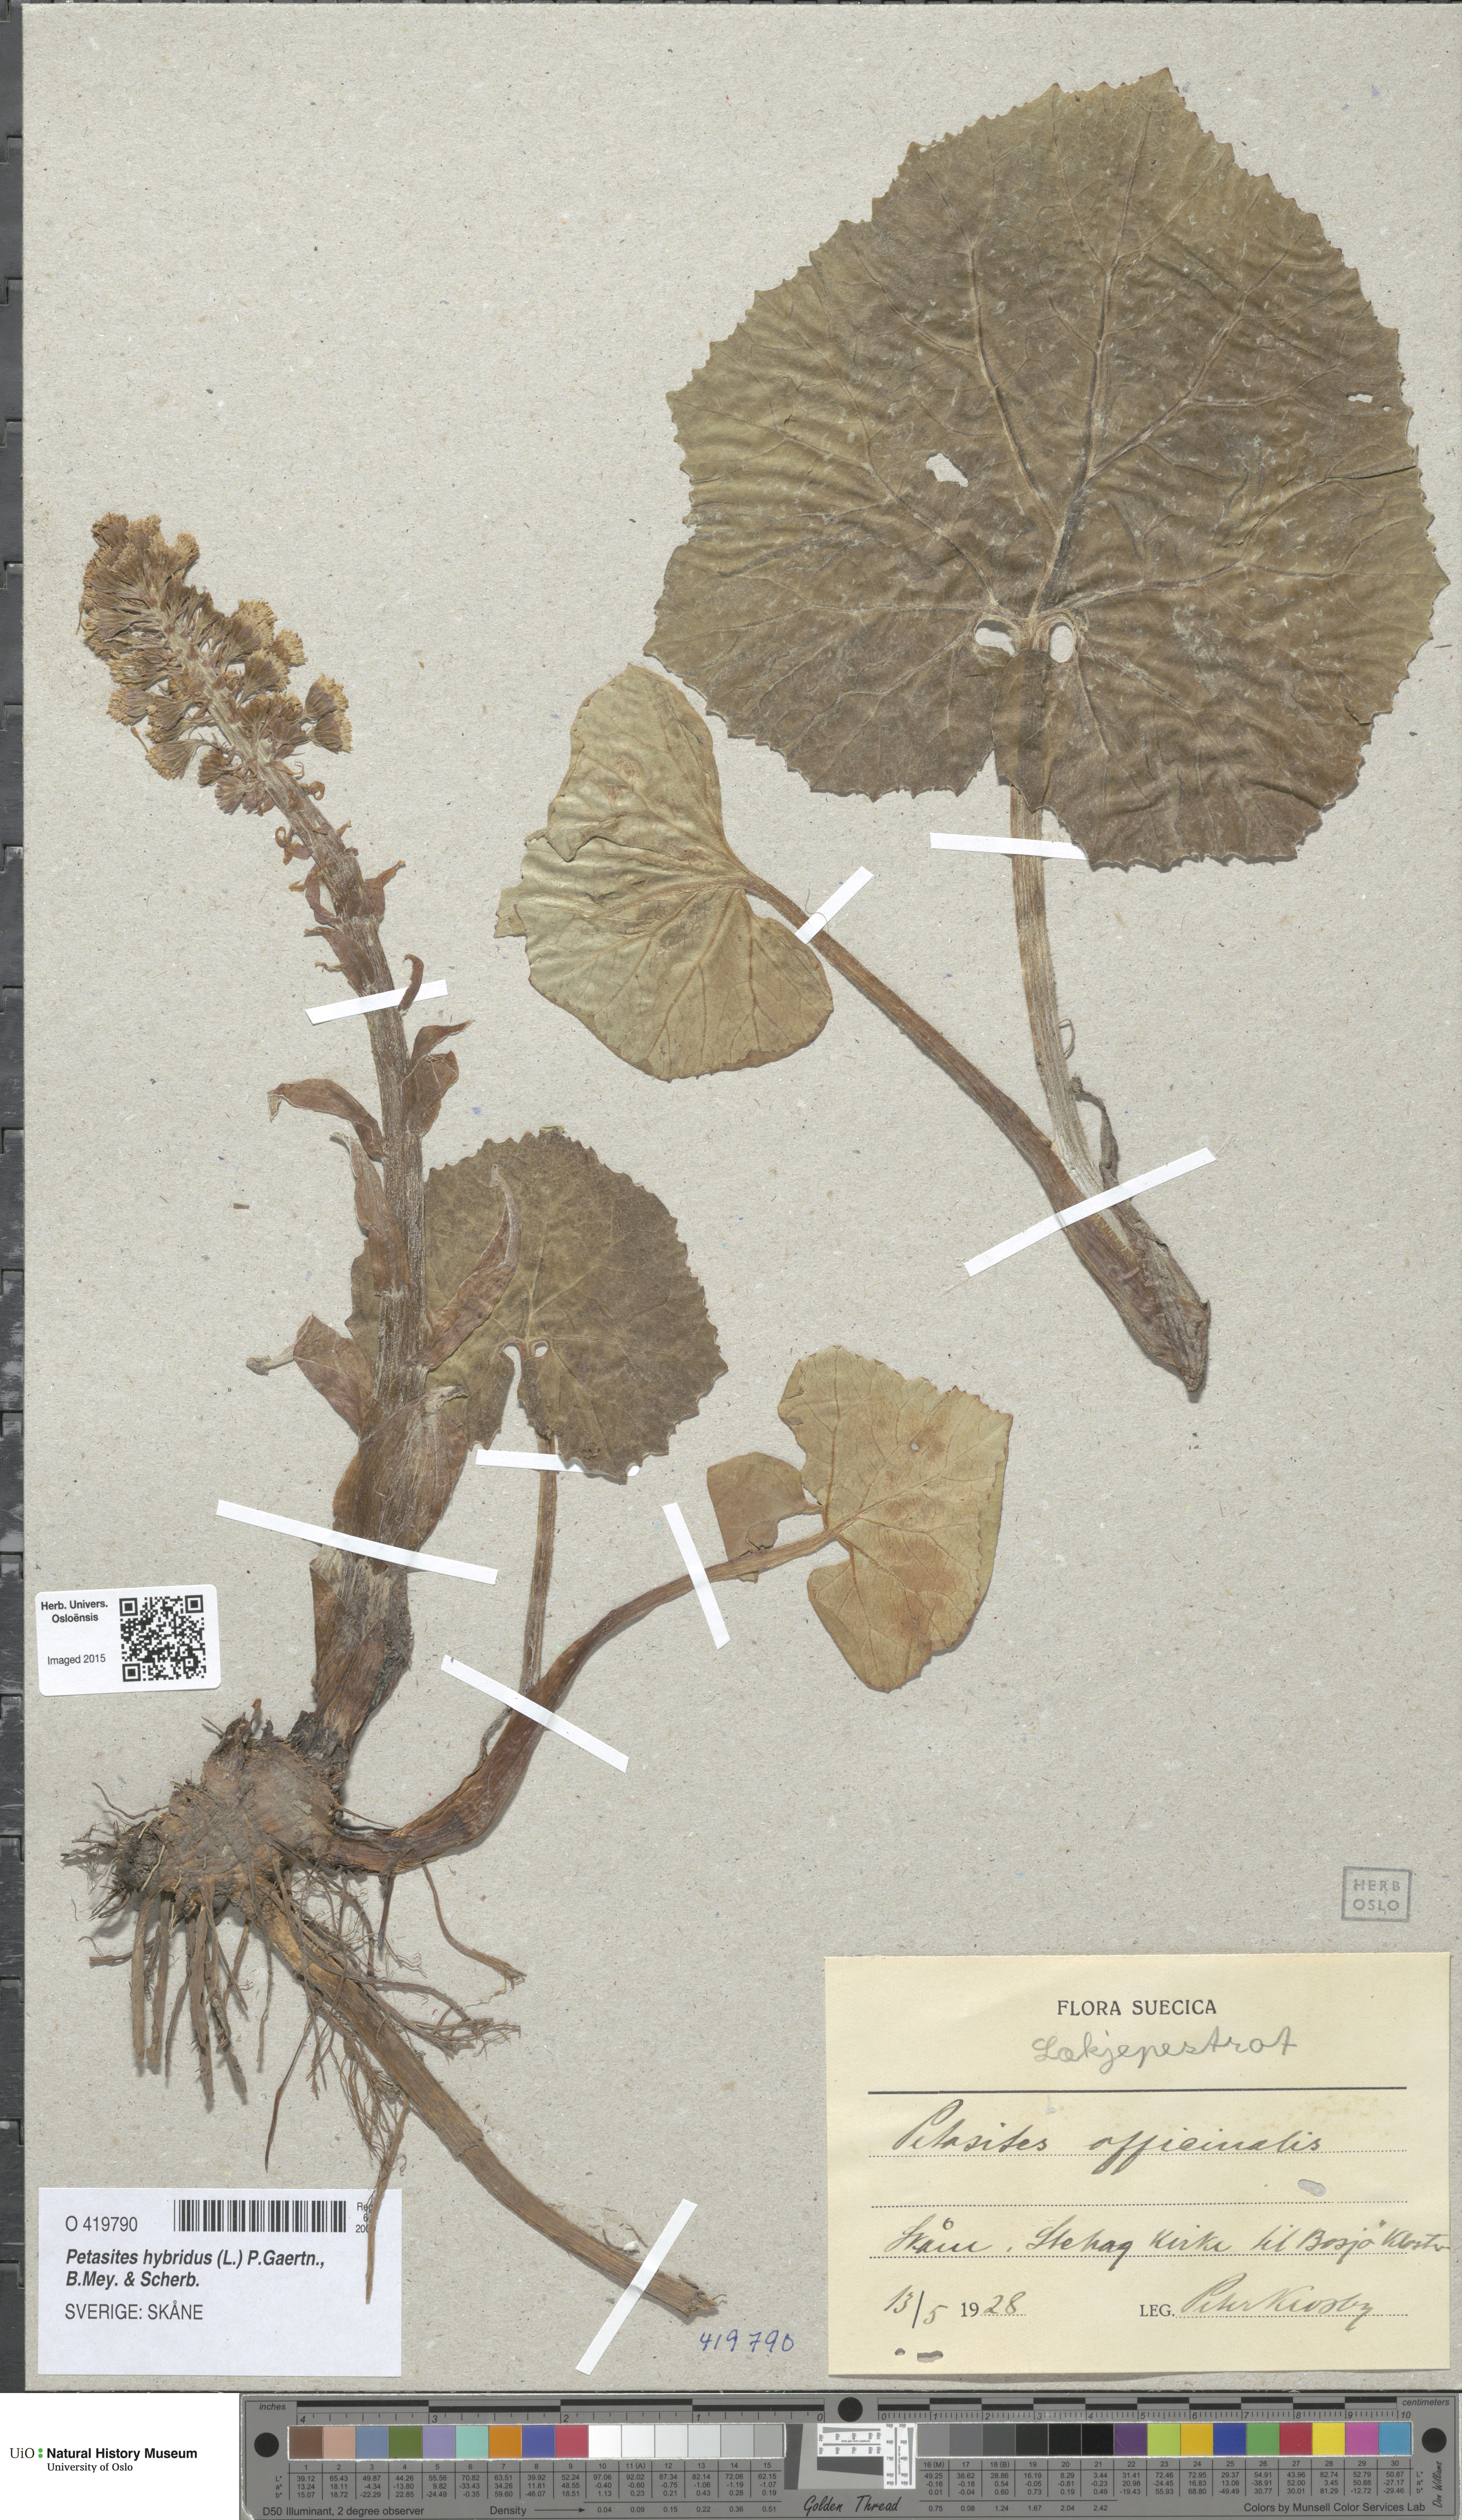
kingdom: Plantae
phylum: Tracheophyta
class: Magnoliopsida
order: Asterales
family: Asteraceae
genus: Petasites
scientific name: Petasites hybridus
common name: Butterbur
